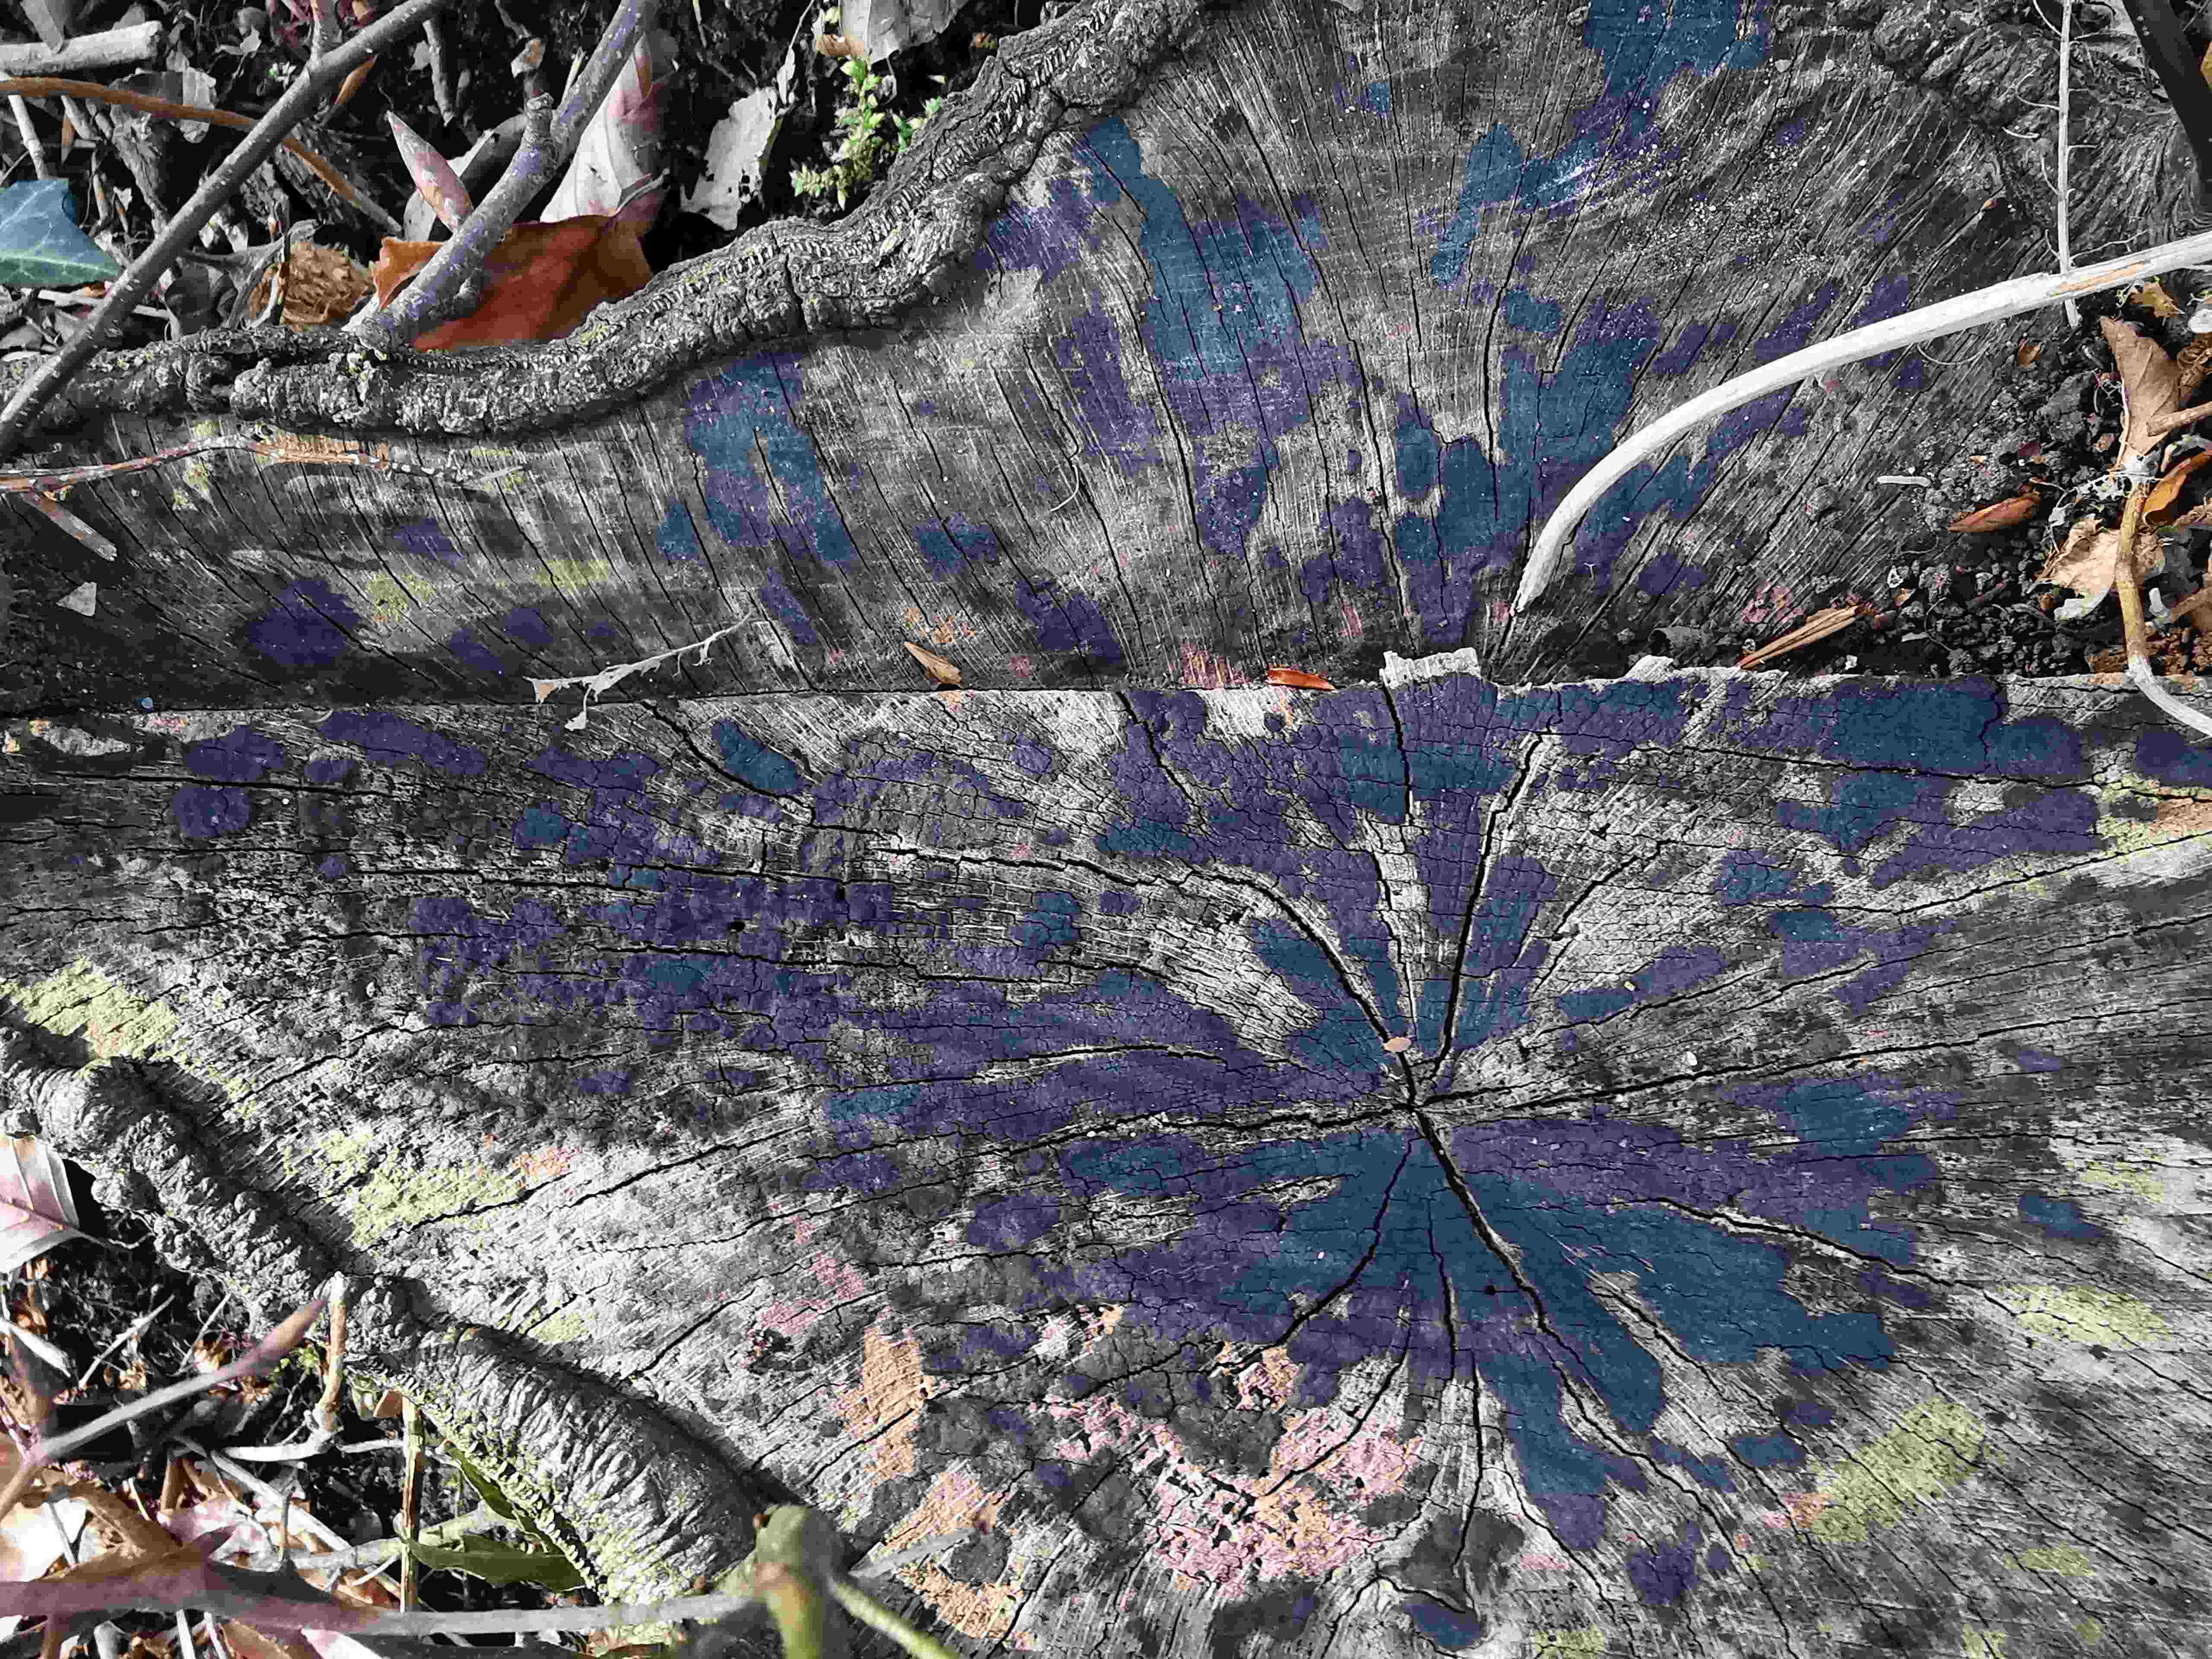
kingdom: Fungi
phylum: Ascomycota
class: Leotiomycetes
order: Helotiales
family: Helotiaceae
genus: Bispora
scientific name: Bispora pallescens
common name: måtte-snitskive
